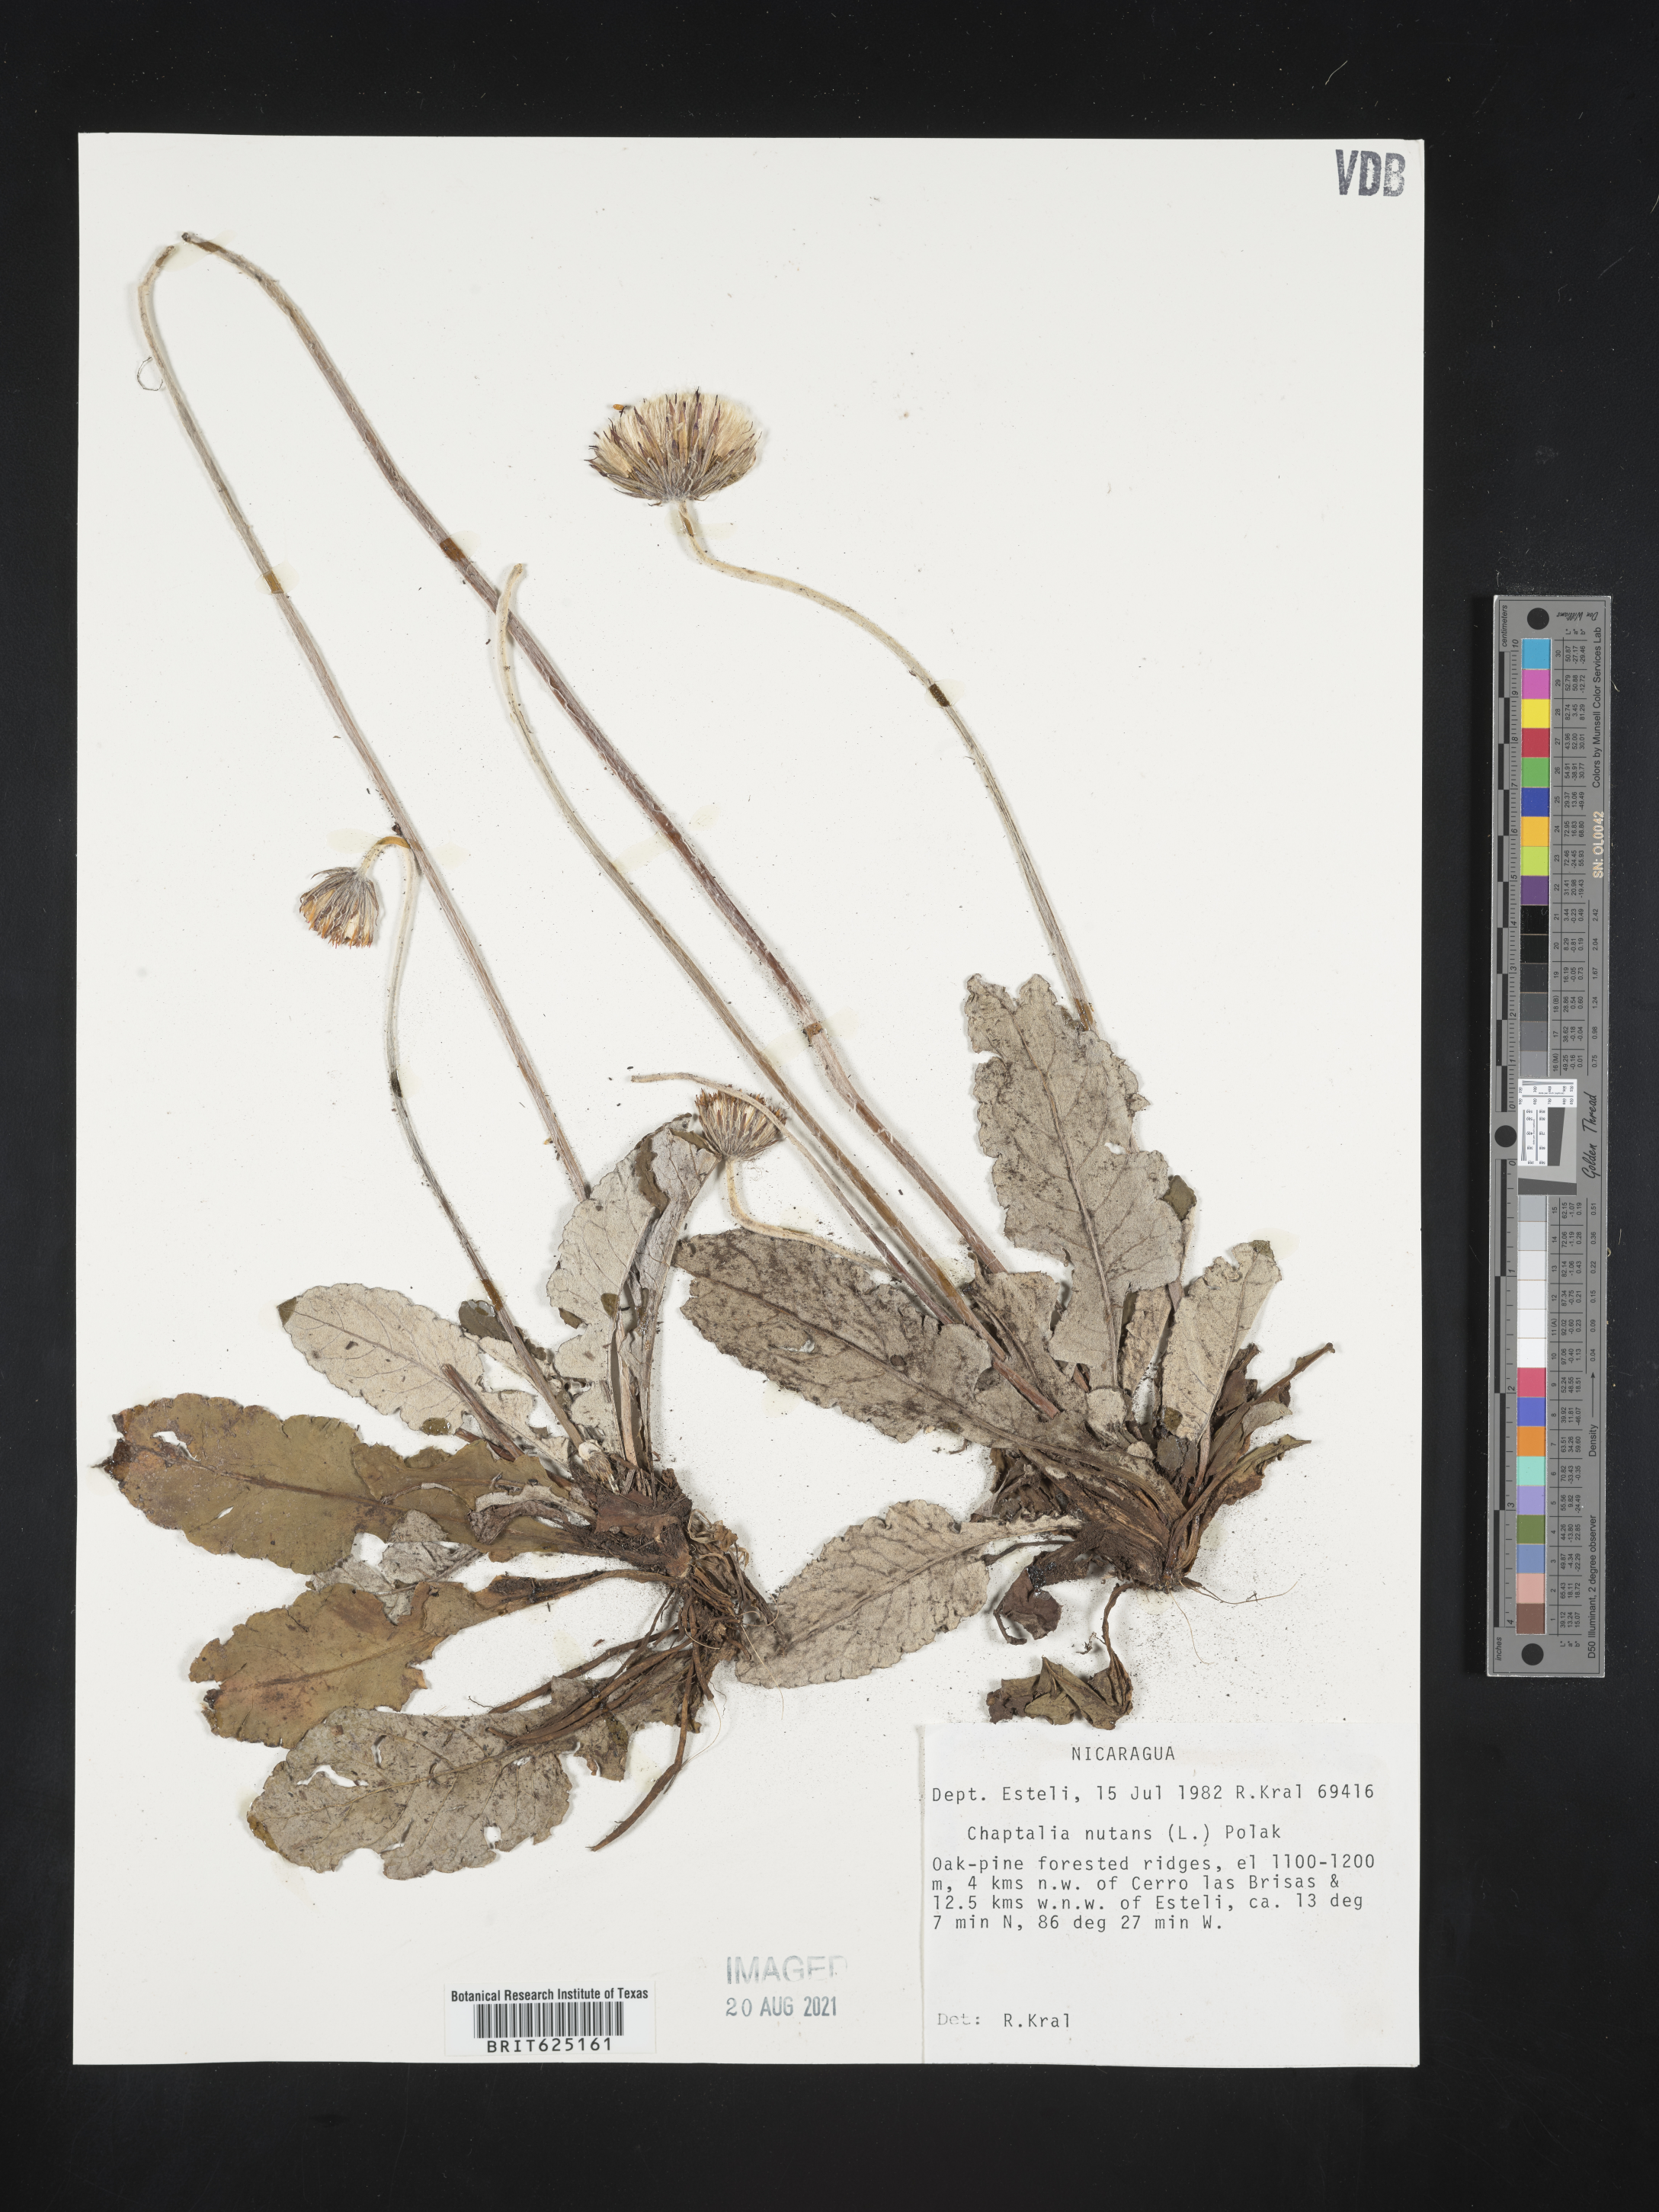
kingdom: Plantae
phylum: Tracheophyta
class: Magnoliopsida
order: Asterales
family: Asteraceae
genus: Chaptalia
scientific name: Chaptalia nutans
